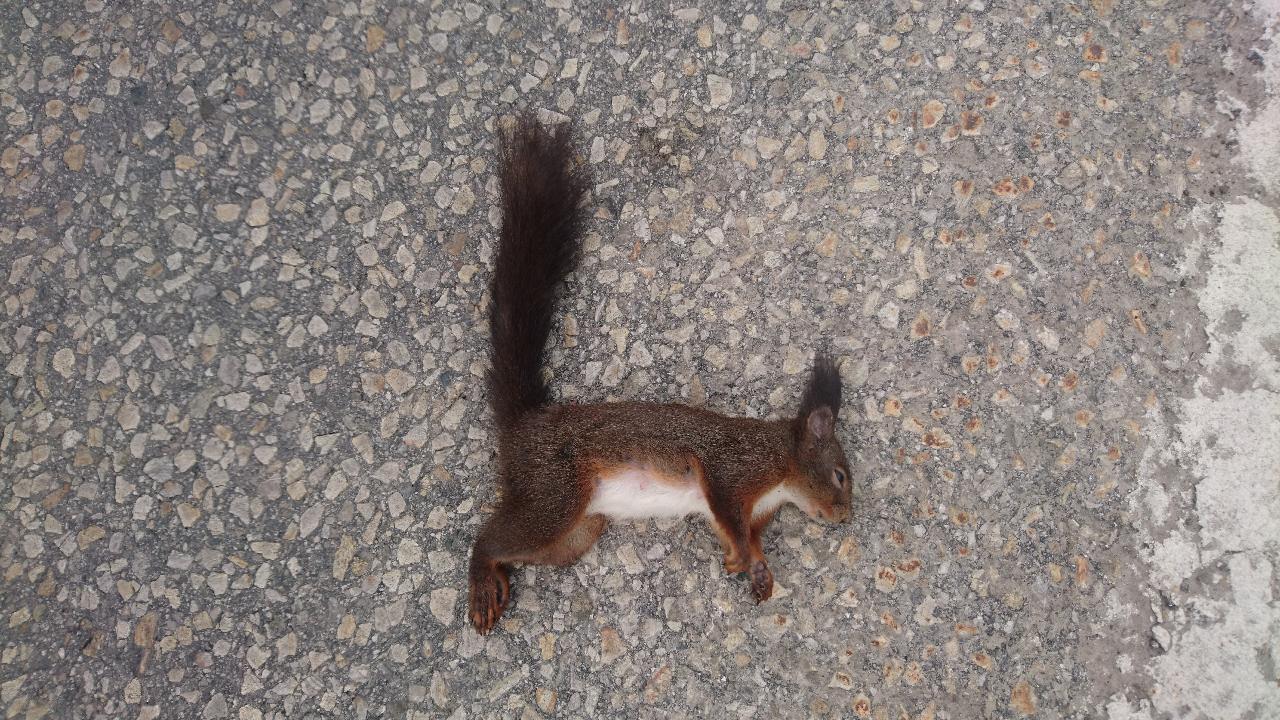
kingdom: Animalia
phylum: Chordata
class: Mammalia
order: Rodentia
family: Sciuridae
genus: Sciurus
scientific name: Sciurus vulgaris
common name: Eurasian red squirrel
